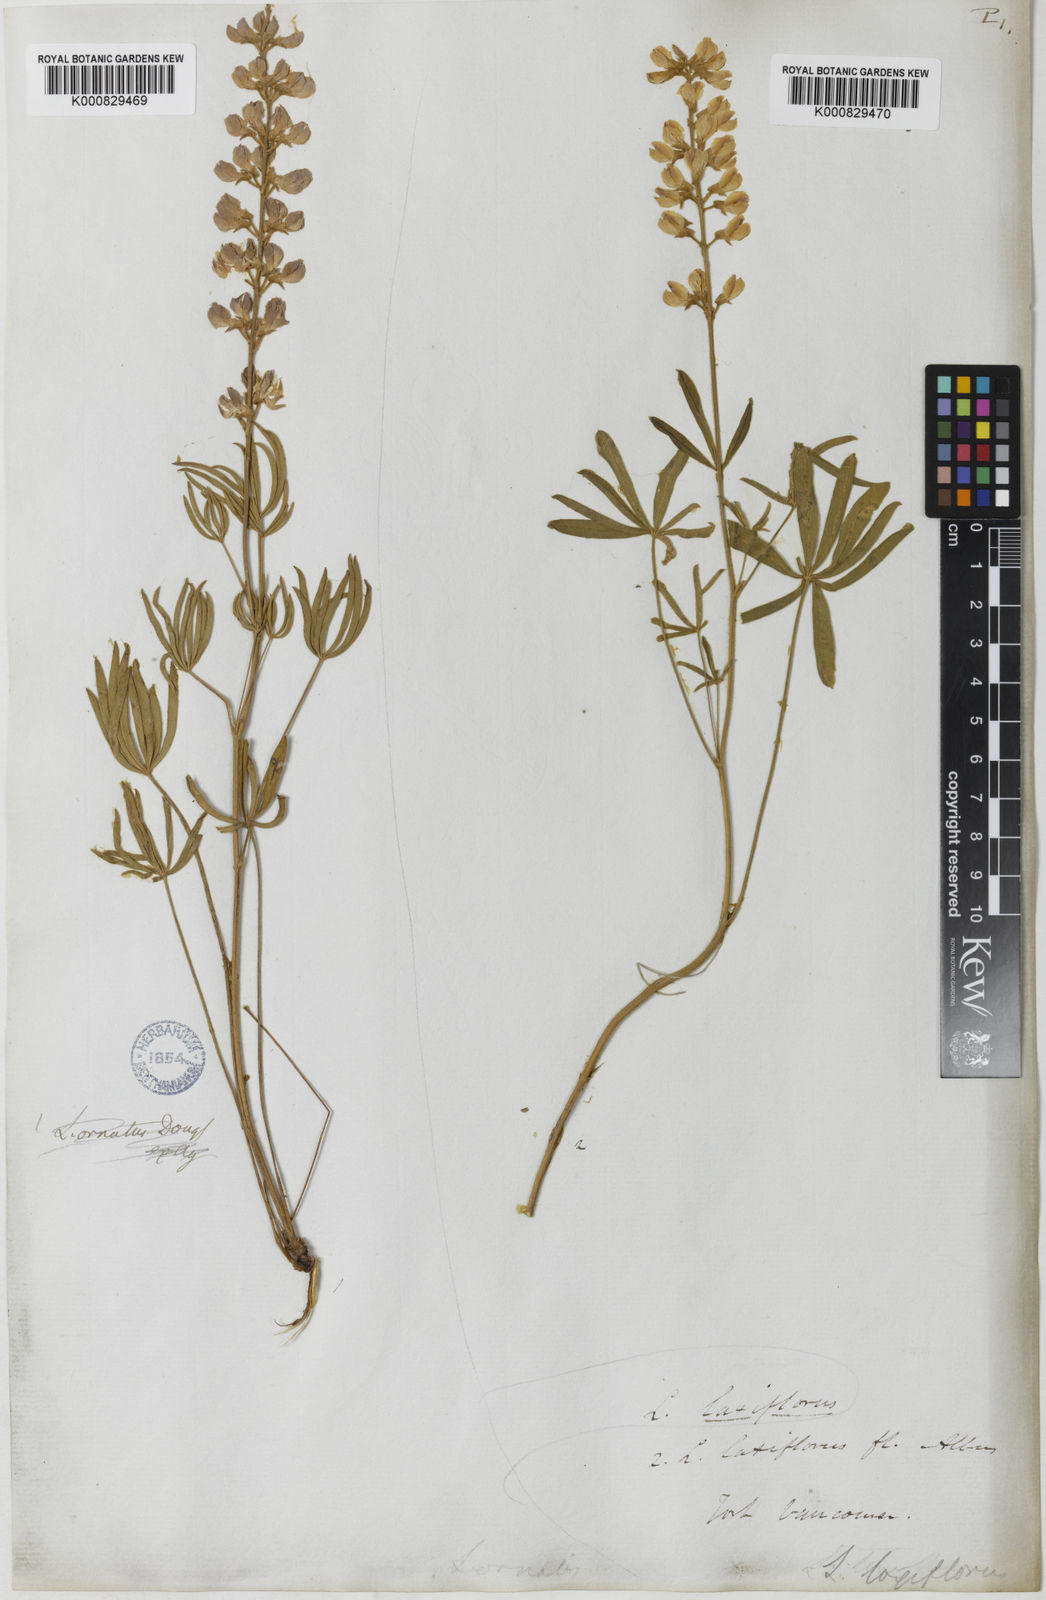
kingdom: Plantae
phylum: Tracheophyta
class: Magnoliopsida
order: Fabales
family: Fabaceae
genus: Lupinus
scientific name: Lupinus argenteus
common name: Silvery lupine
